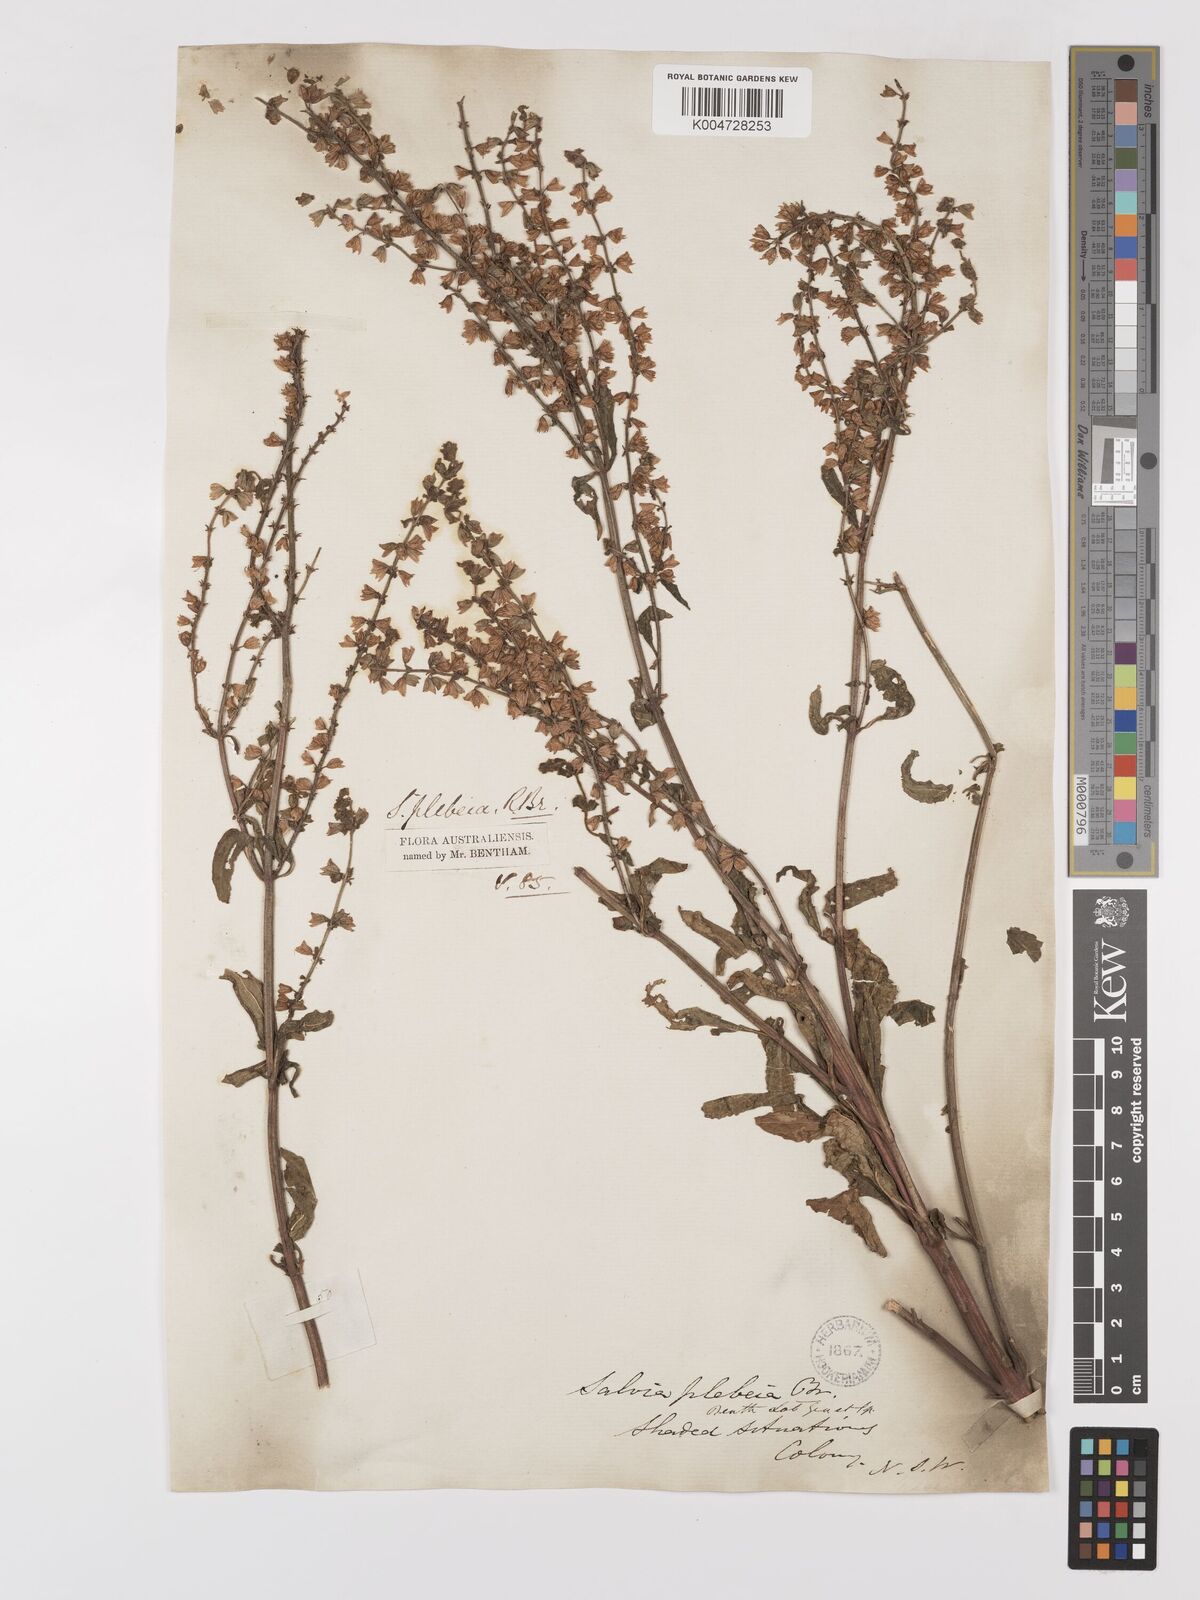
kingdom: Plantae
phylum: Tracheophyta
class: Magnoliopsida
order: Lamiales
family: Lamiaceae
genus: Salvia
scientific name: Salvia plebeia
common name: Australian sage
